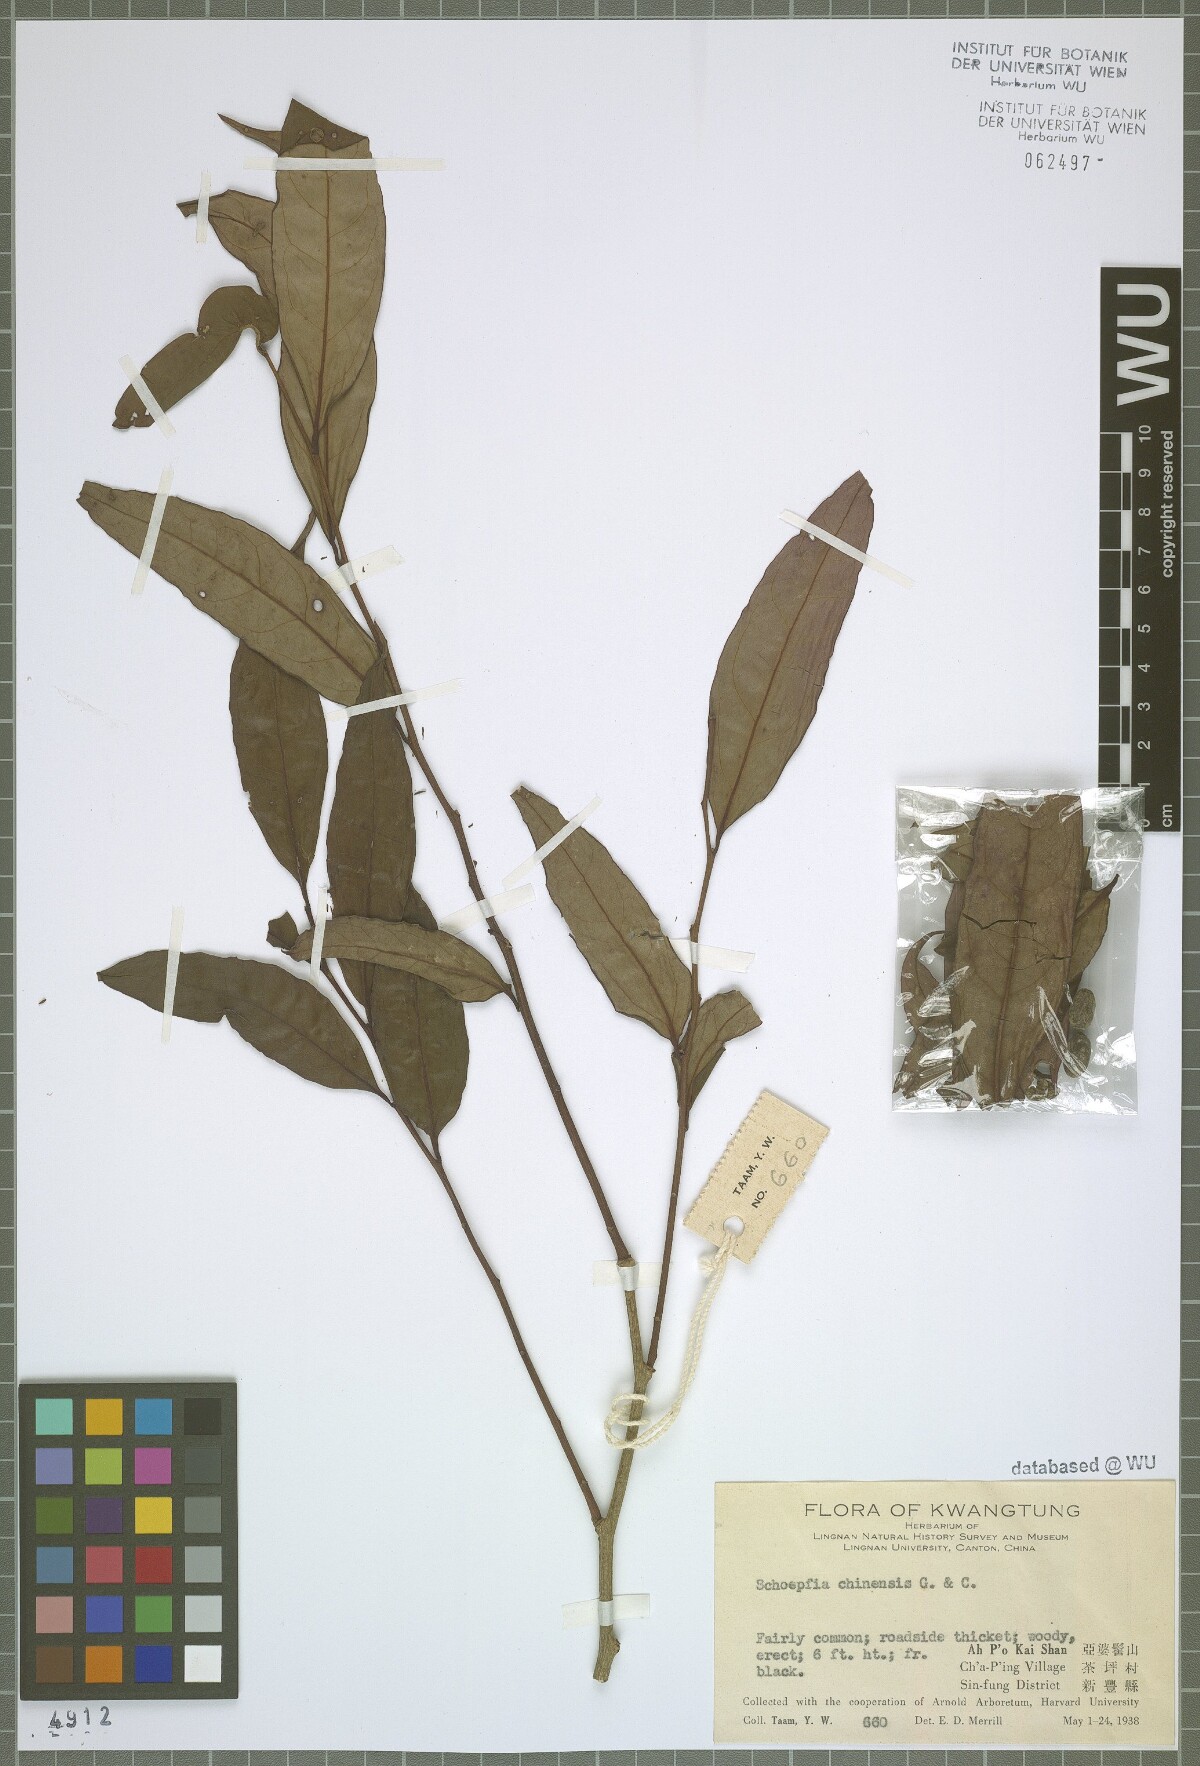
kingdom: Plantae
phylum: Tracheophyta
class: Magnoliopsida
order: Santalales
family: Schoepfiaceae
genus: Schoepfia
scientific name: Schoepfia chinensis
